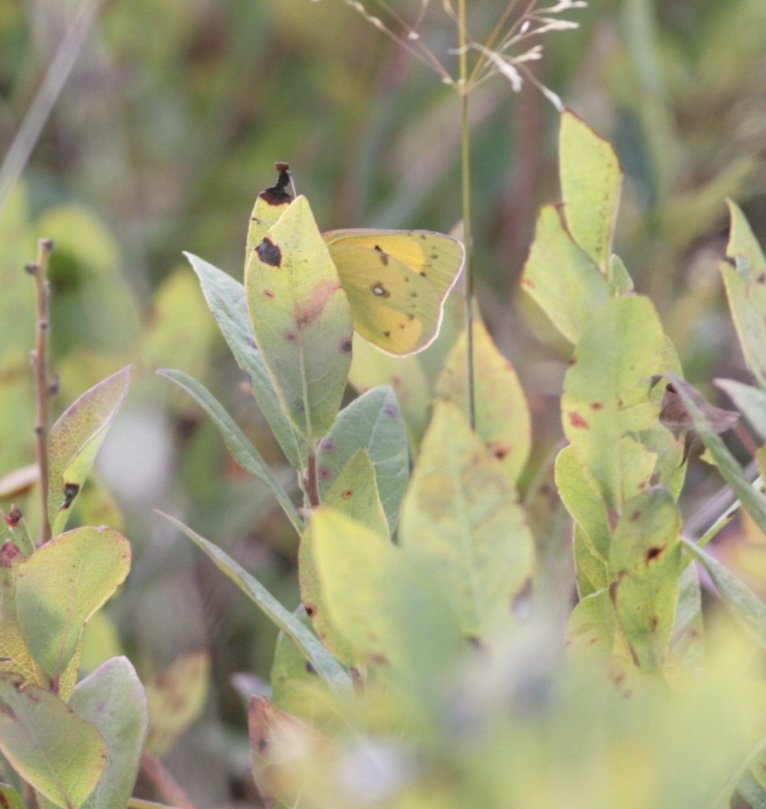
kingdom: Animalia
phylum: Arthropoda
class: Insecta
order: Lepidoptera
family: Pieridae
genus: Colias
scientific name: Colias eurytheme
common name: Orange Sulphur
